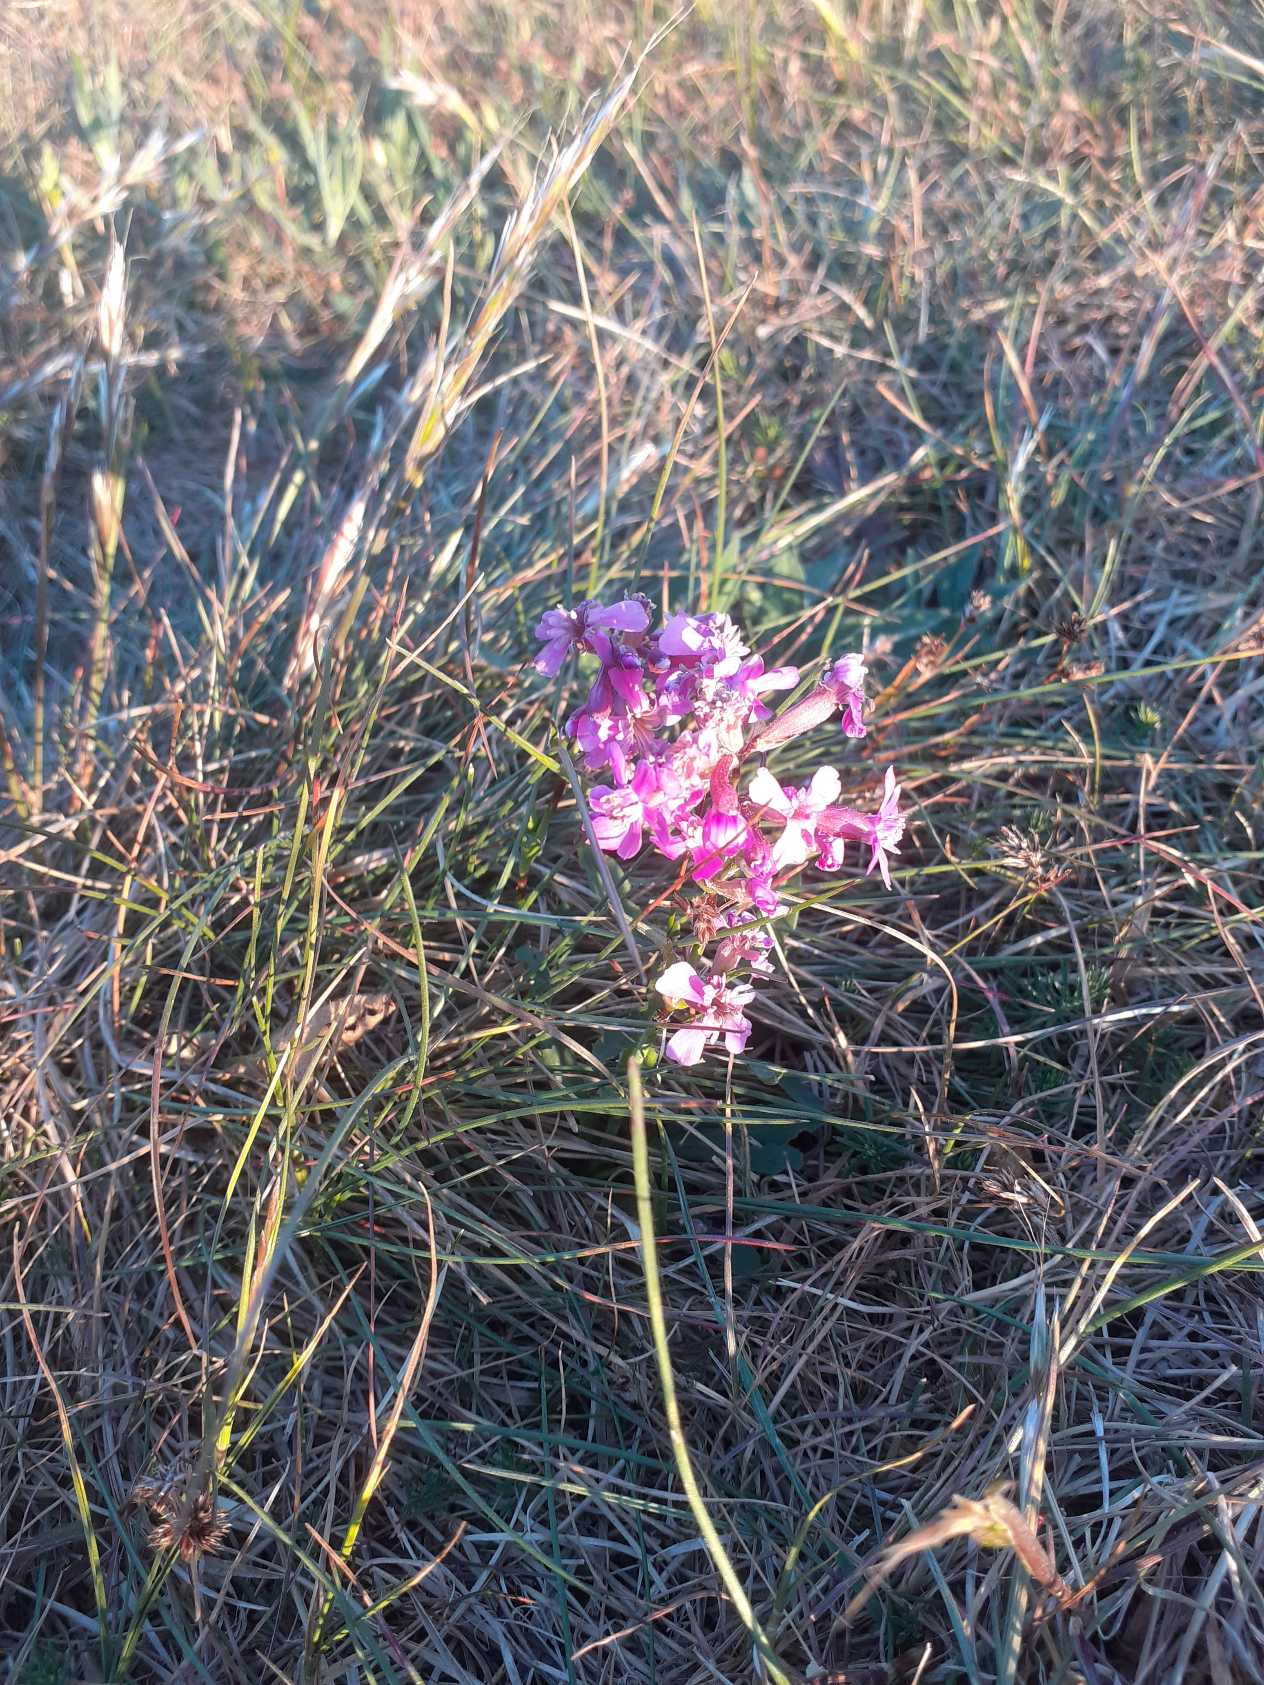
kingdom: Plantae
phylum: Tracheophyta
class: Magnoliopsida
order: Caryophyllales
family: Caryophyllaceae
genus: Viscaria
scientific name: Viscaria vulgaris
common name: Tjærenellike
